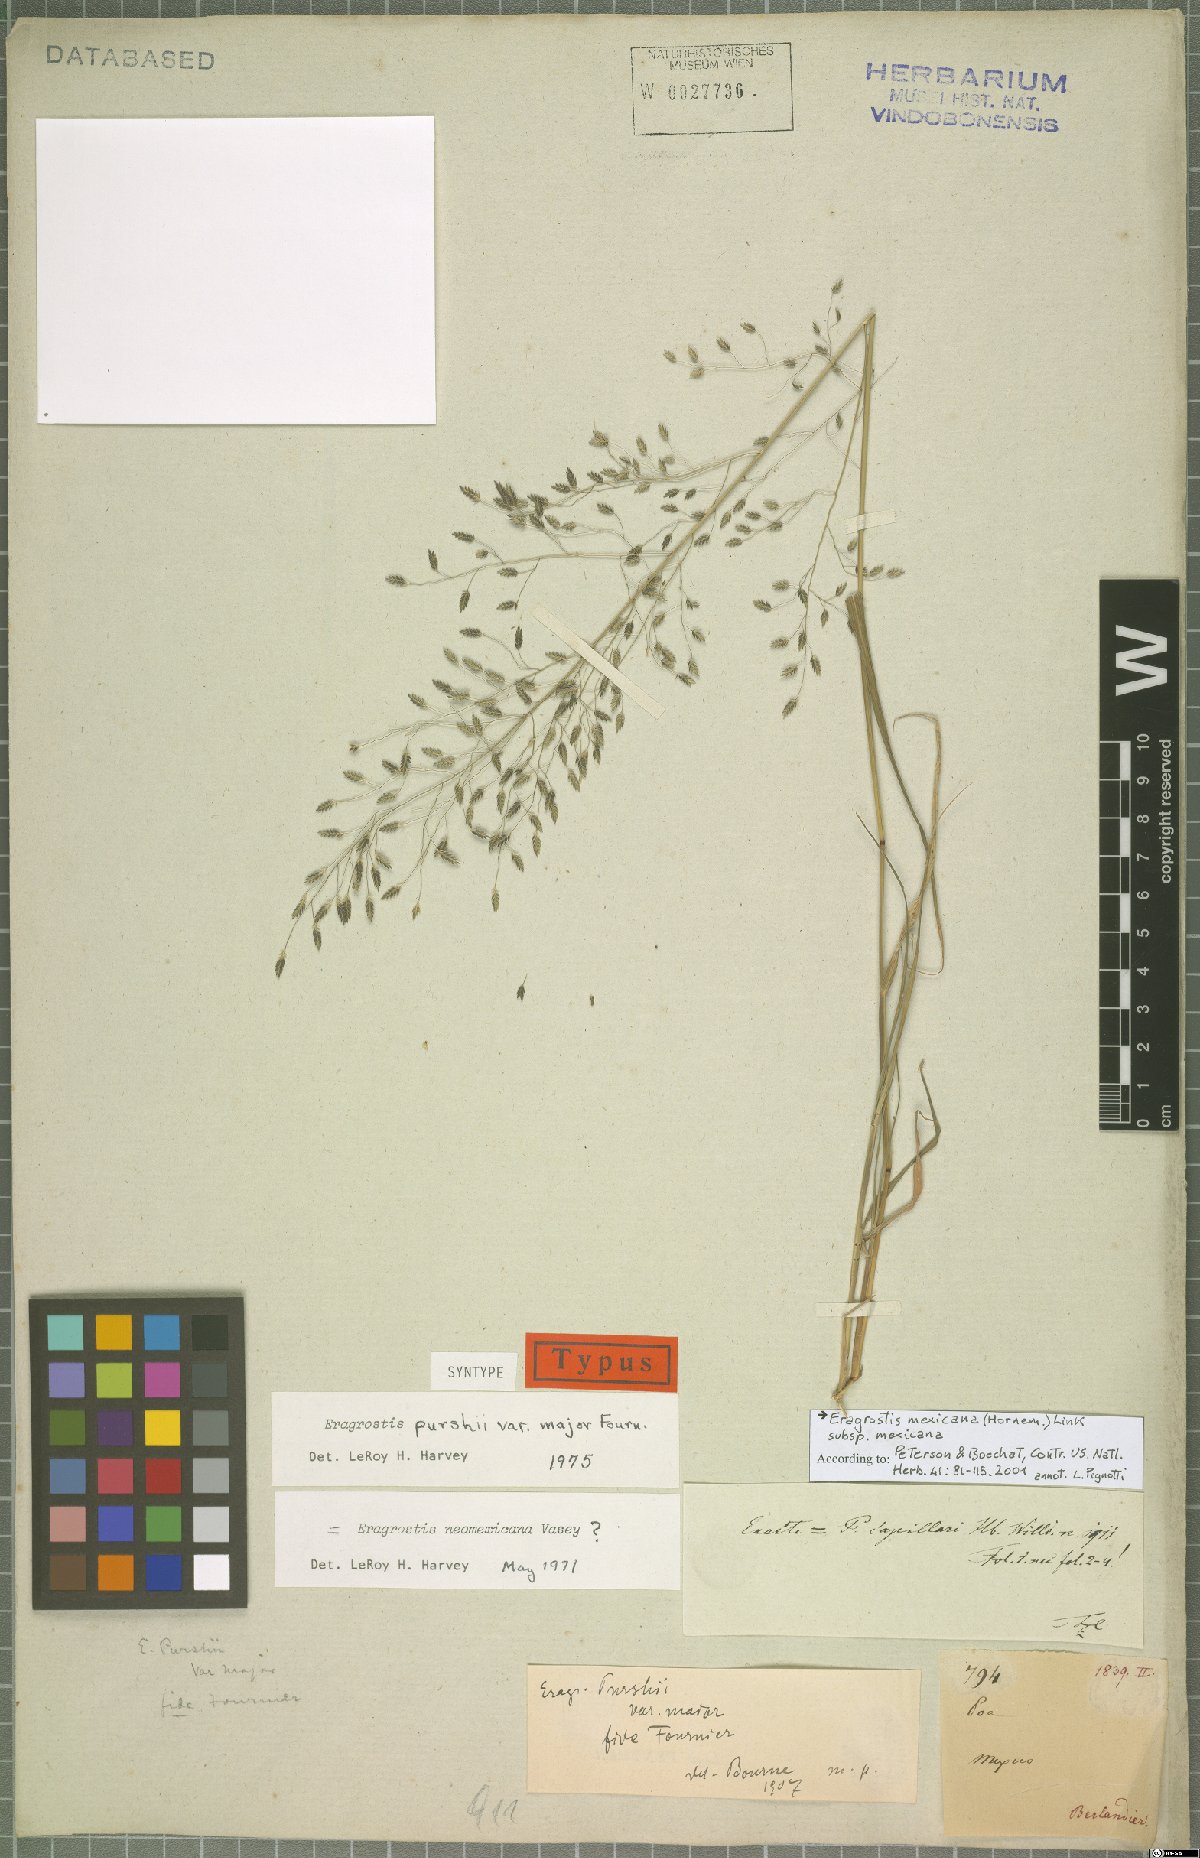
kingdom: Plantae
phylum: Tracheophyta
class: Liliopsida
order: Poales
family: Poaceae
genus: Eragrostis
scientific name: Eragrostis mexicana
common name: Mexican love grass
